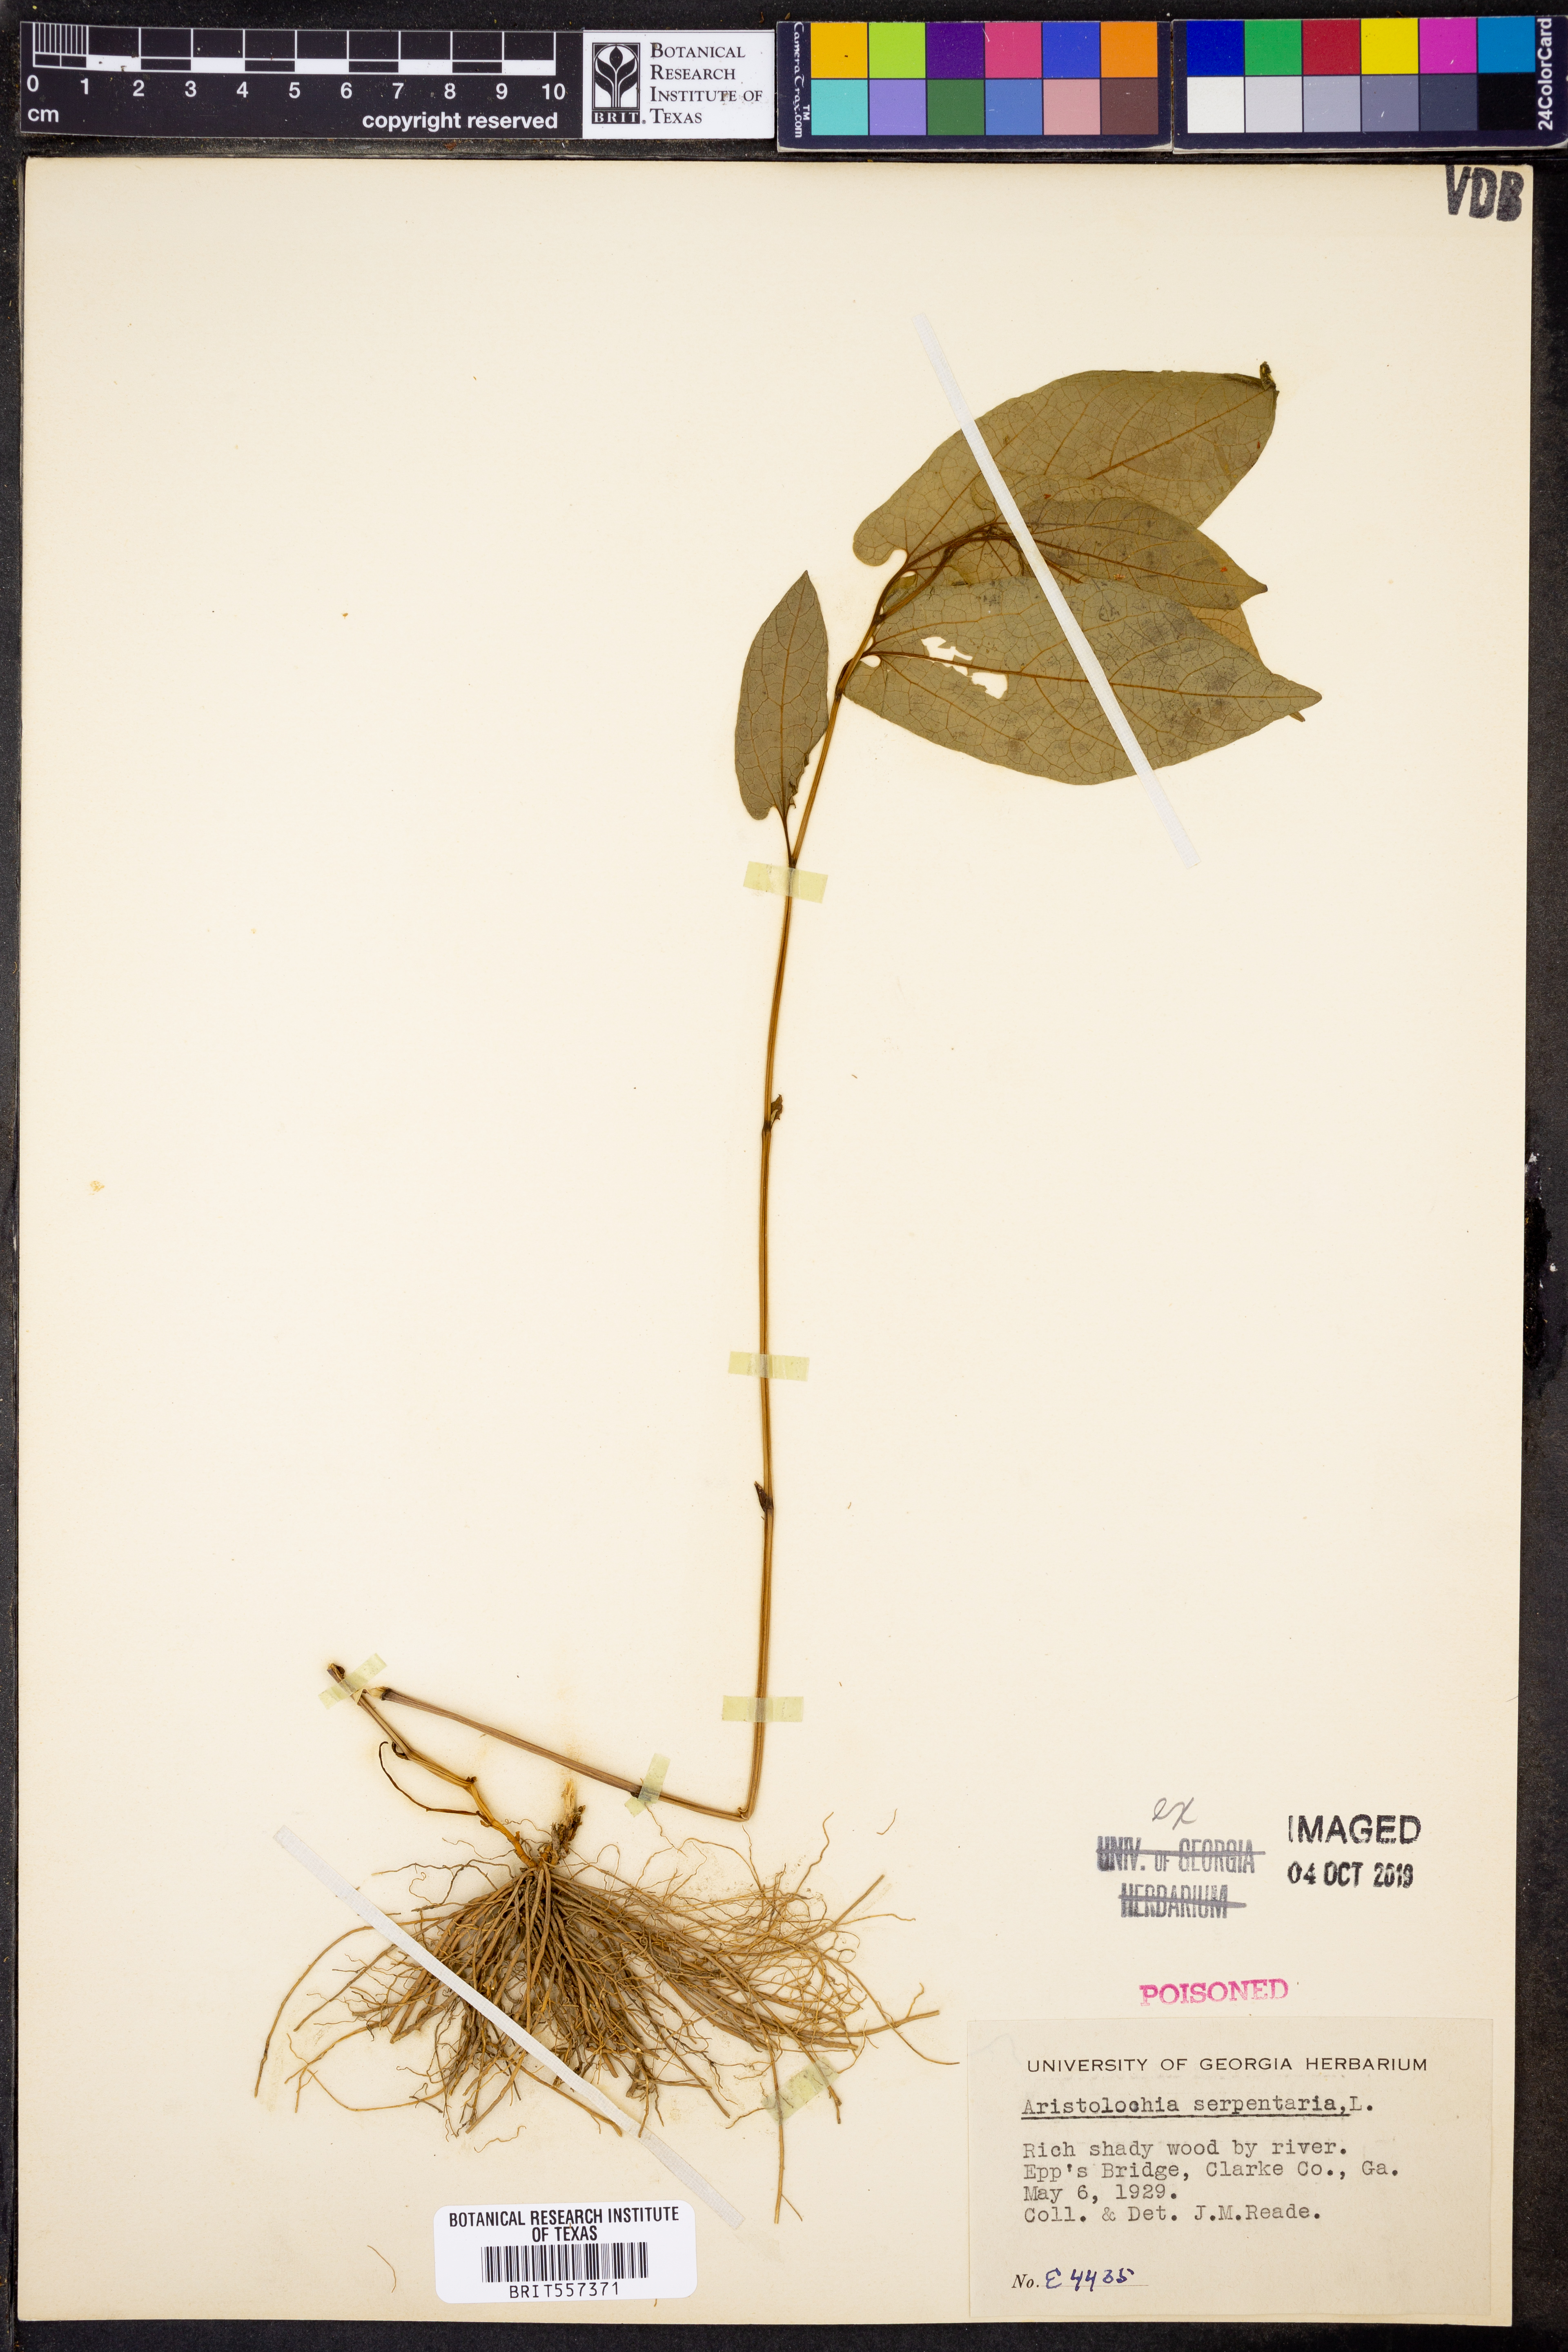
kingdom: Plantae
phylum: Tracheophyta
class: Magnoliopsida
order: Piperales
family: Aristolochiaceae
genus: Endodeca
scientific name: Endodeca serpentaria
